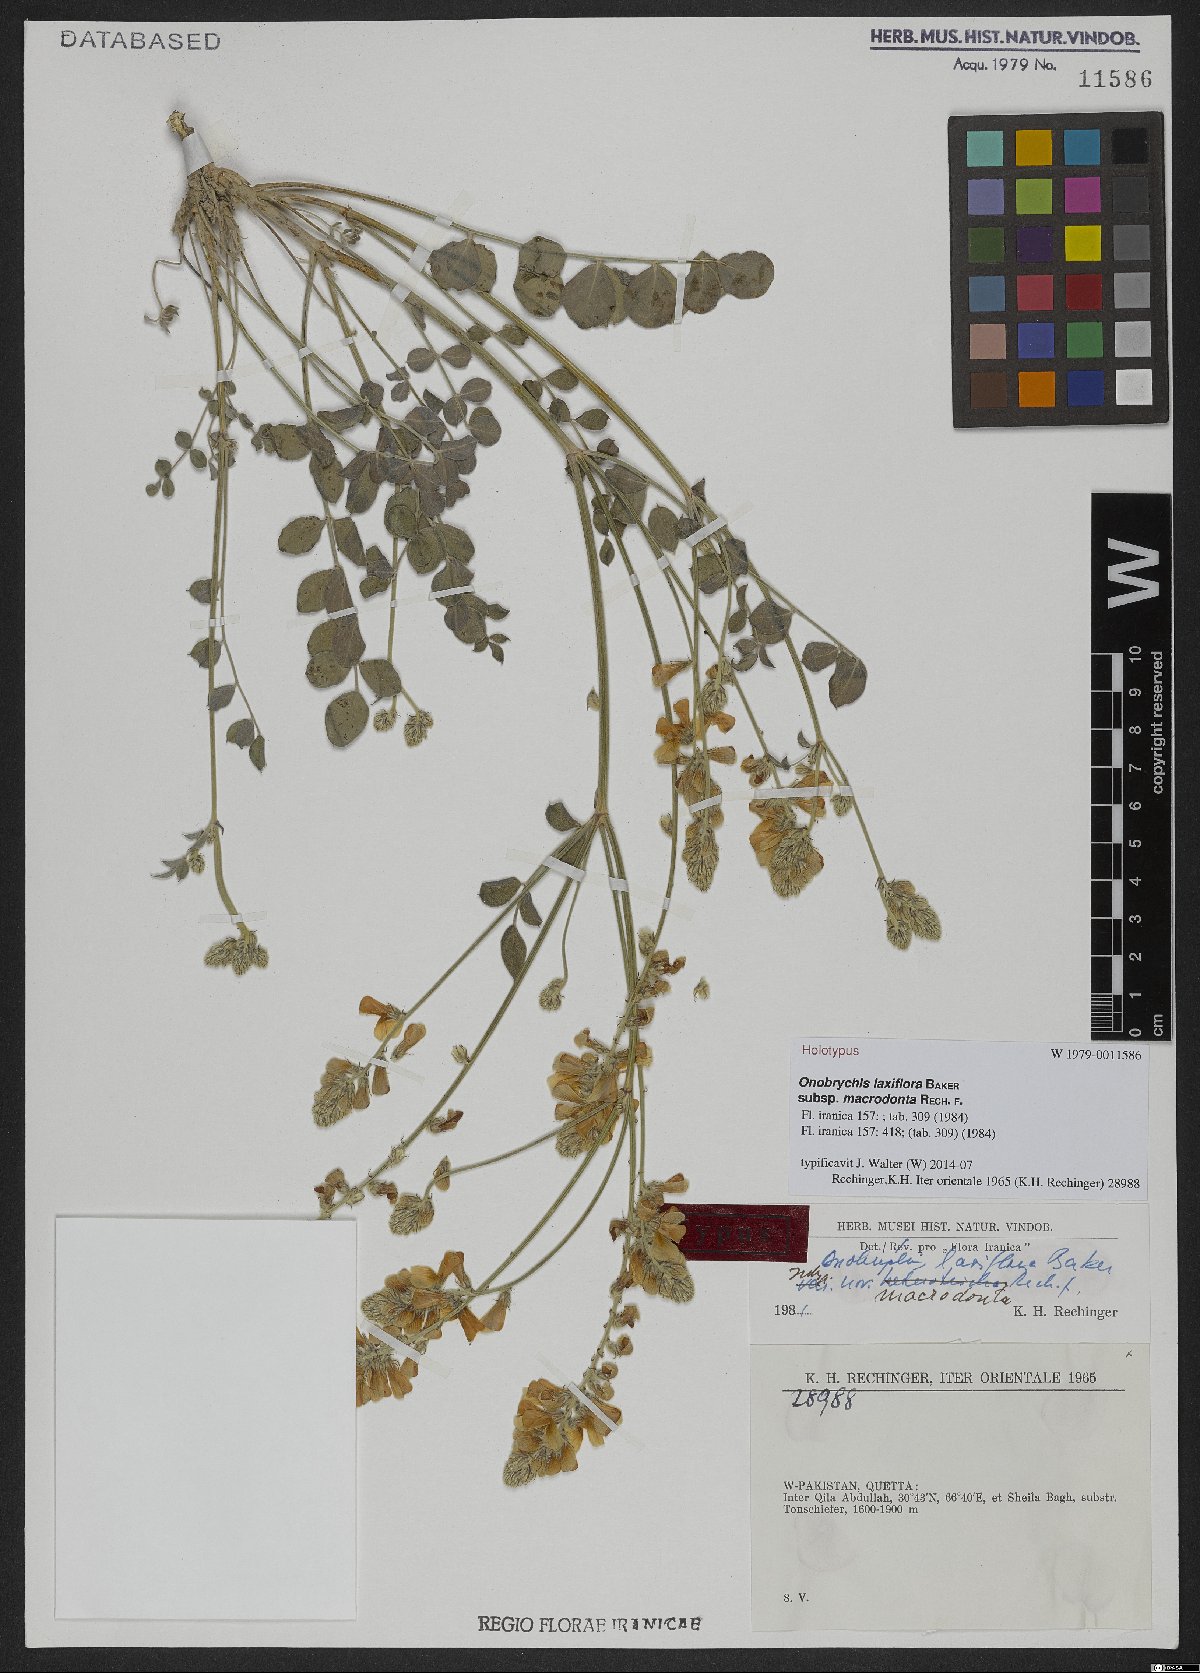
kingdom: Plantae
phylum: Tracheophyta
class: Magnoliopsida
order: Fabales
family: Fabaceae
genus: Onobrychis
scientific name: Onobrychis laxiflora
